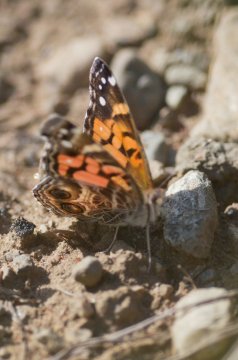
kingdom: Animalia
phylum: Arthropoda
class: Insecta
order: Lepidoptera
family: Nymphalidae
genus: Vanessa
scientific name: Vanessa virginiensis
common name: American Lady
